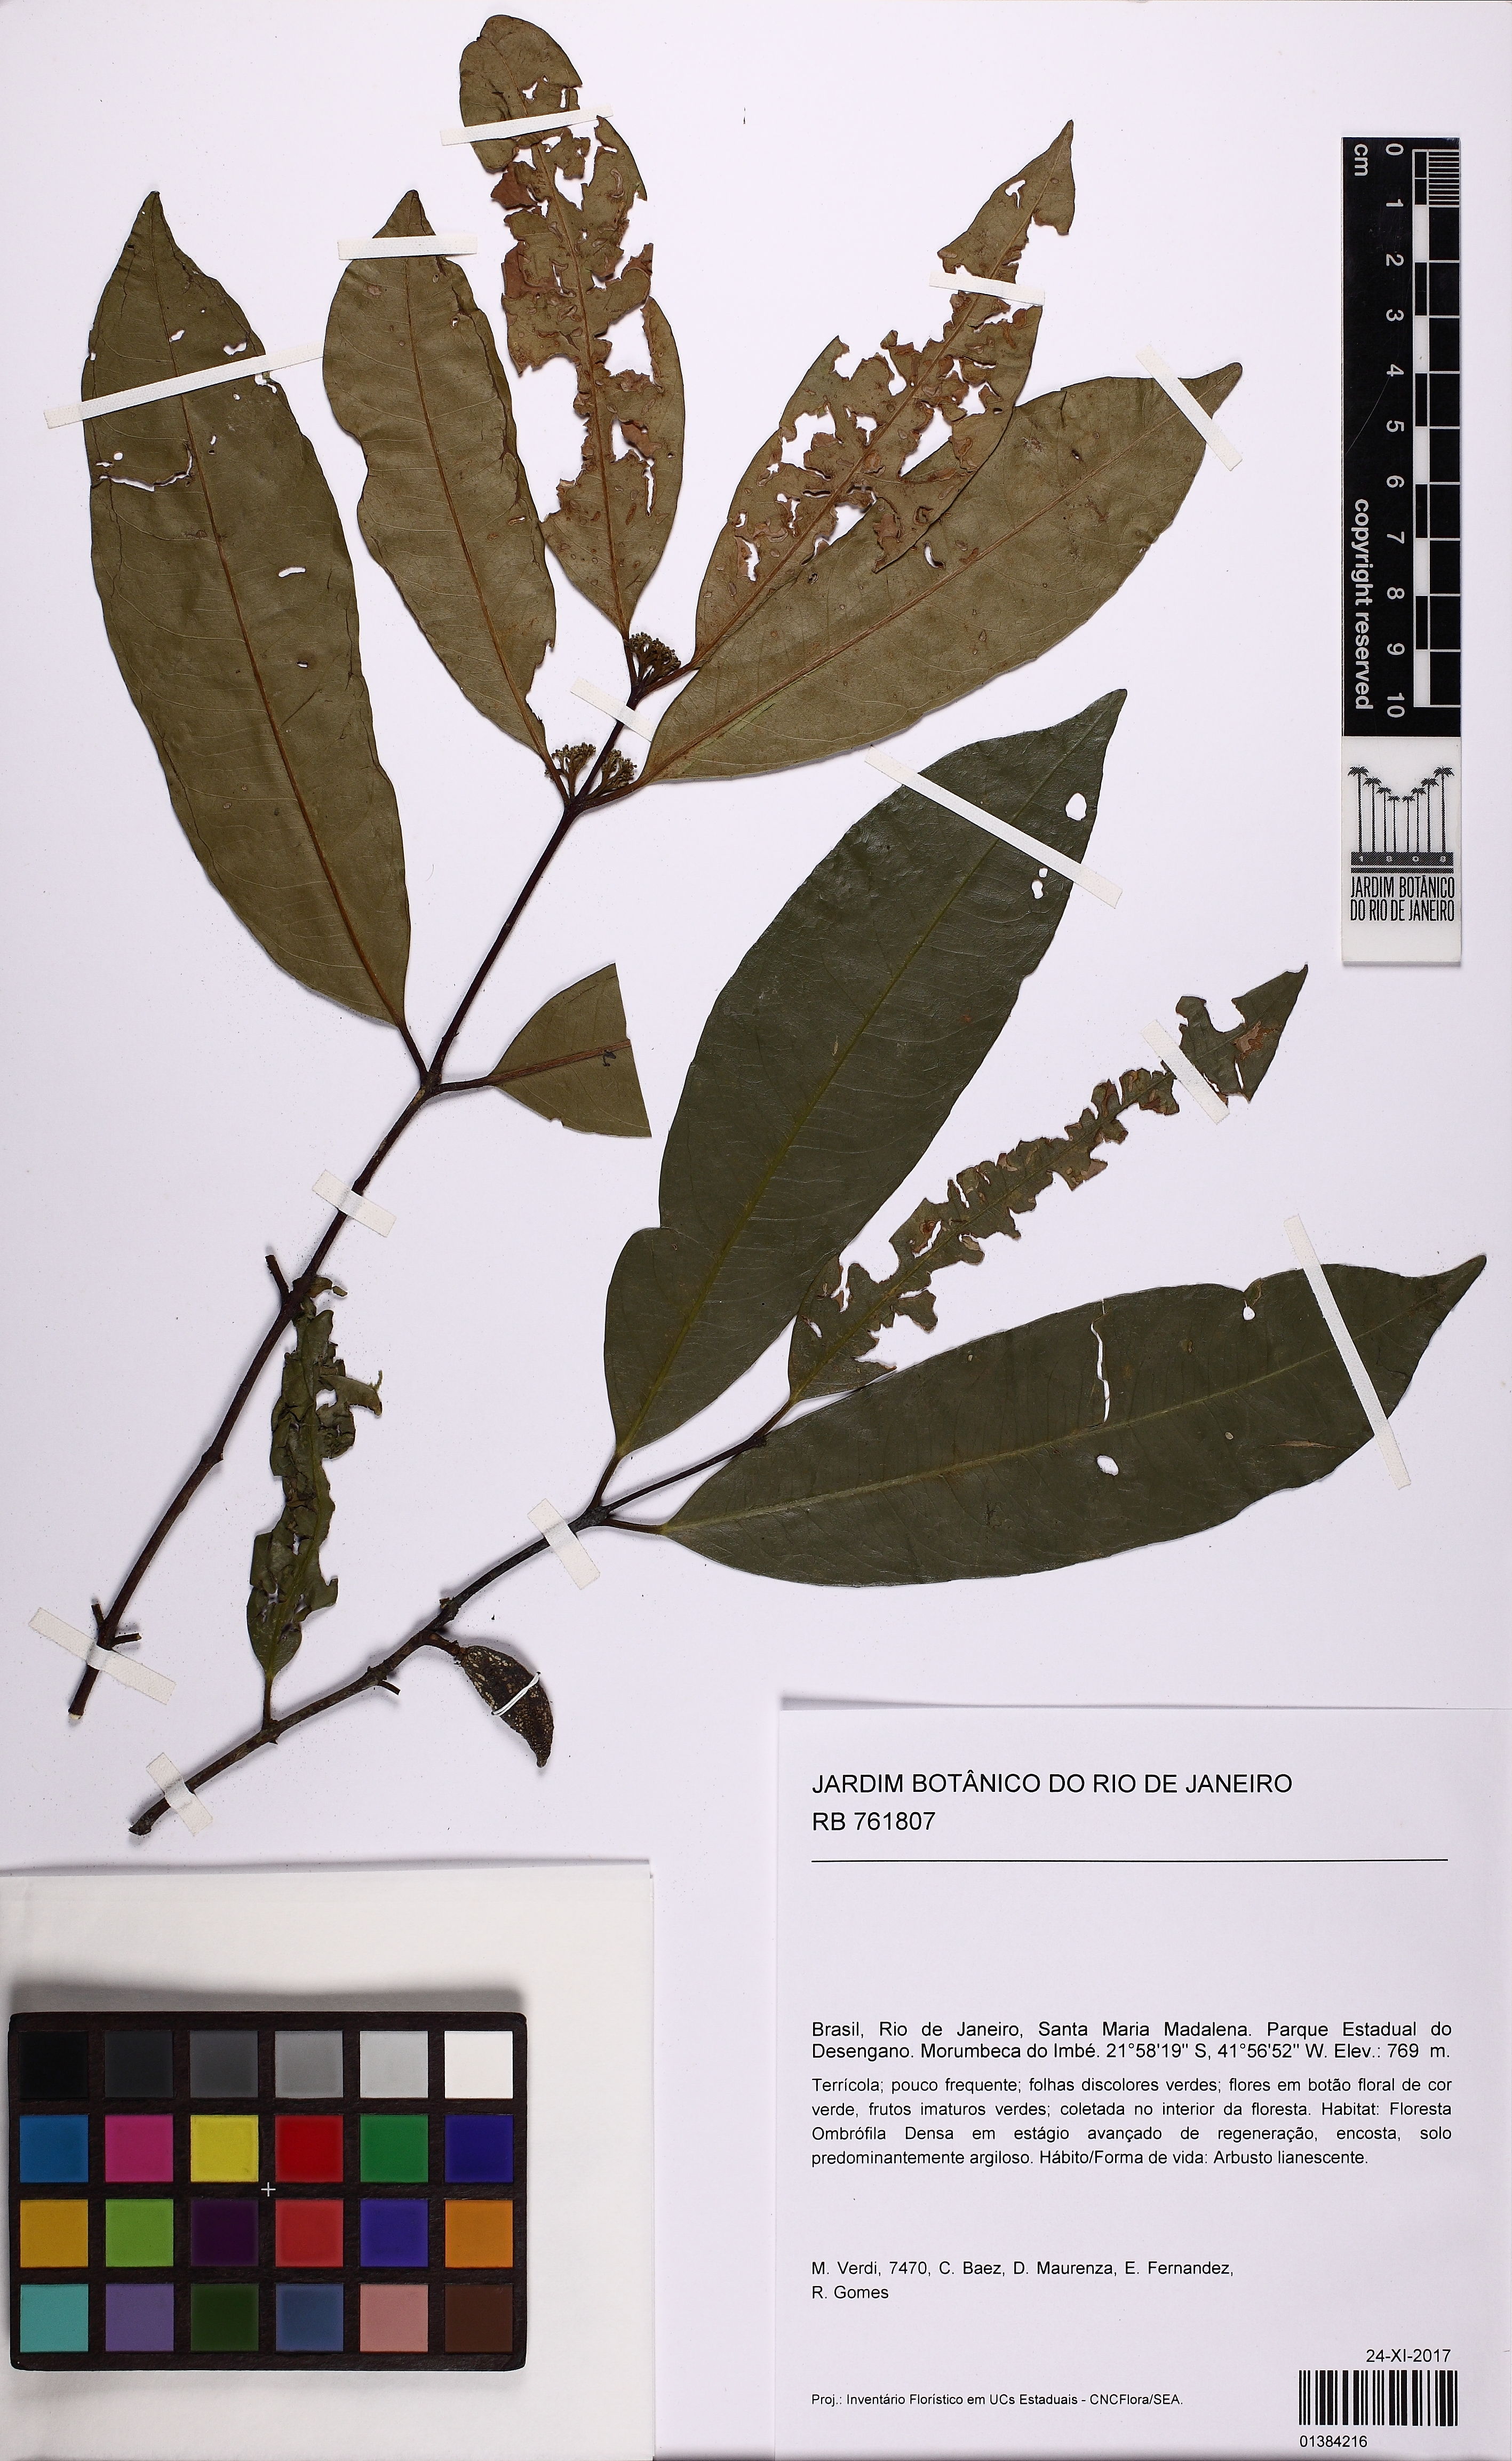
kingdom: Plantae
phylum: Tracheophyta
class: Magnoliopsida
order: Celastrales
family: Celastraceae
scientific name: Celastraceae
